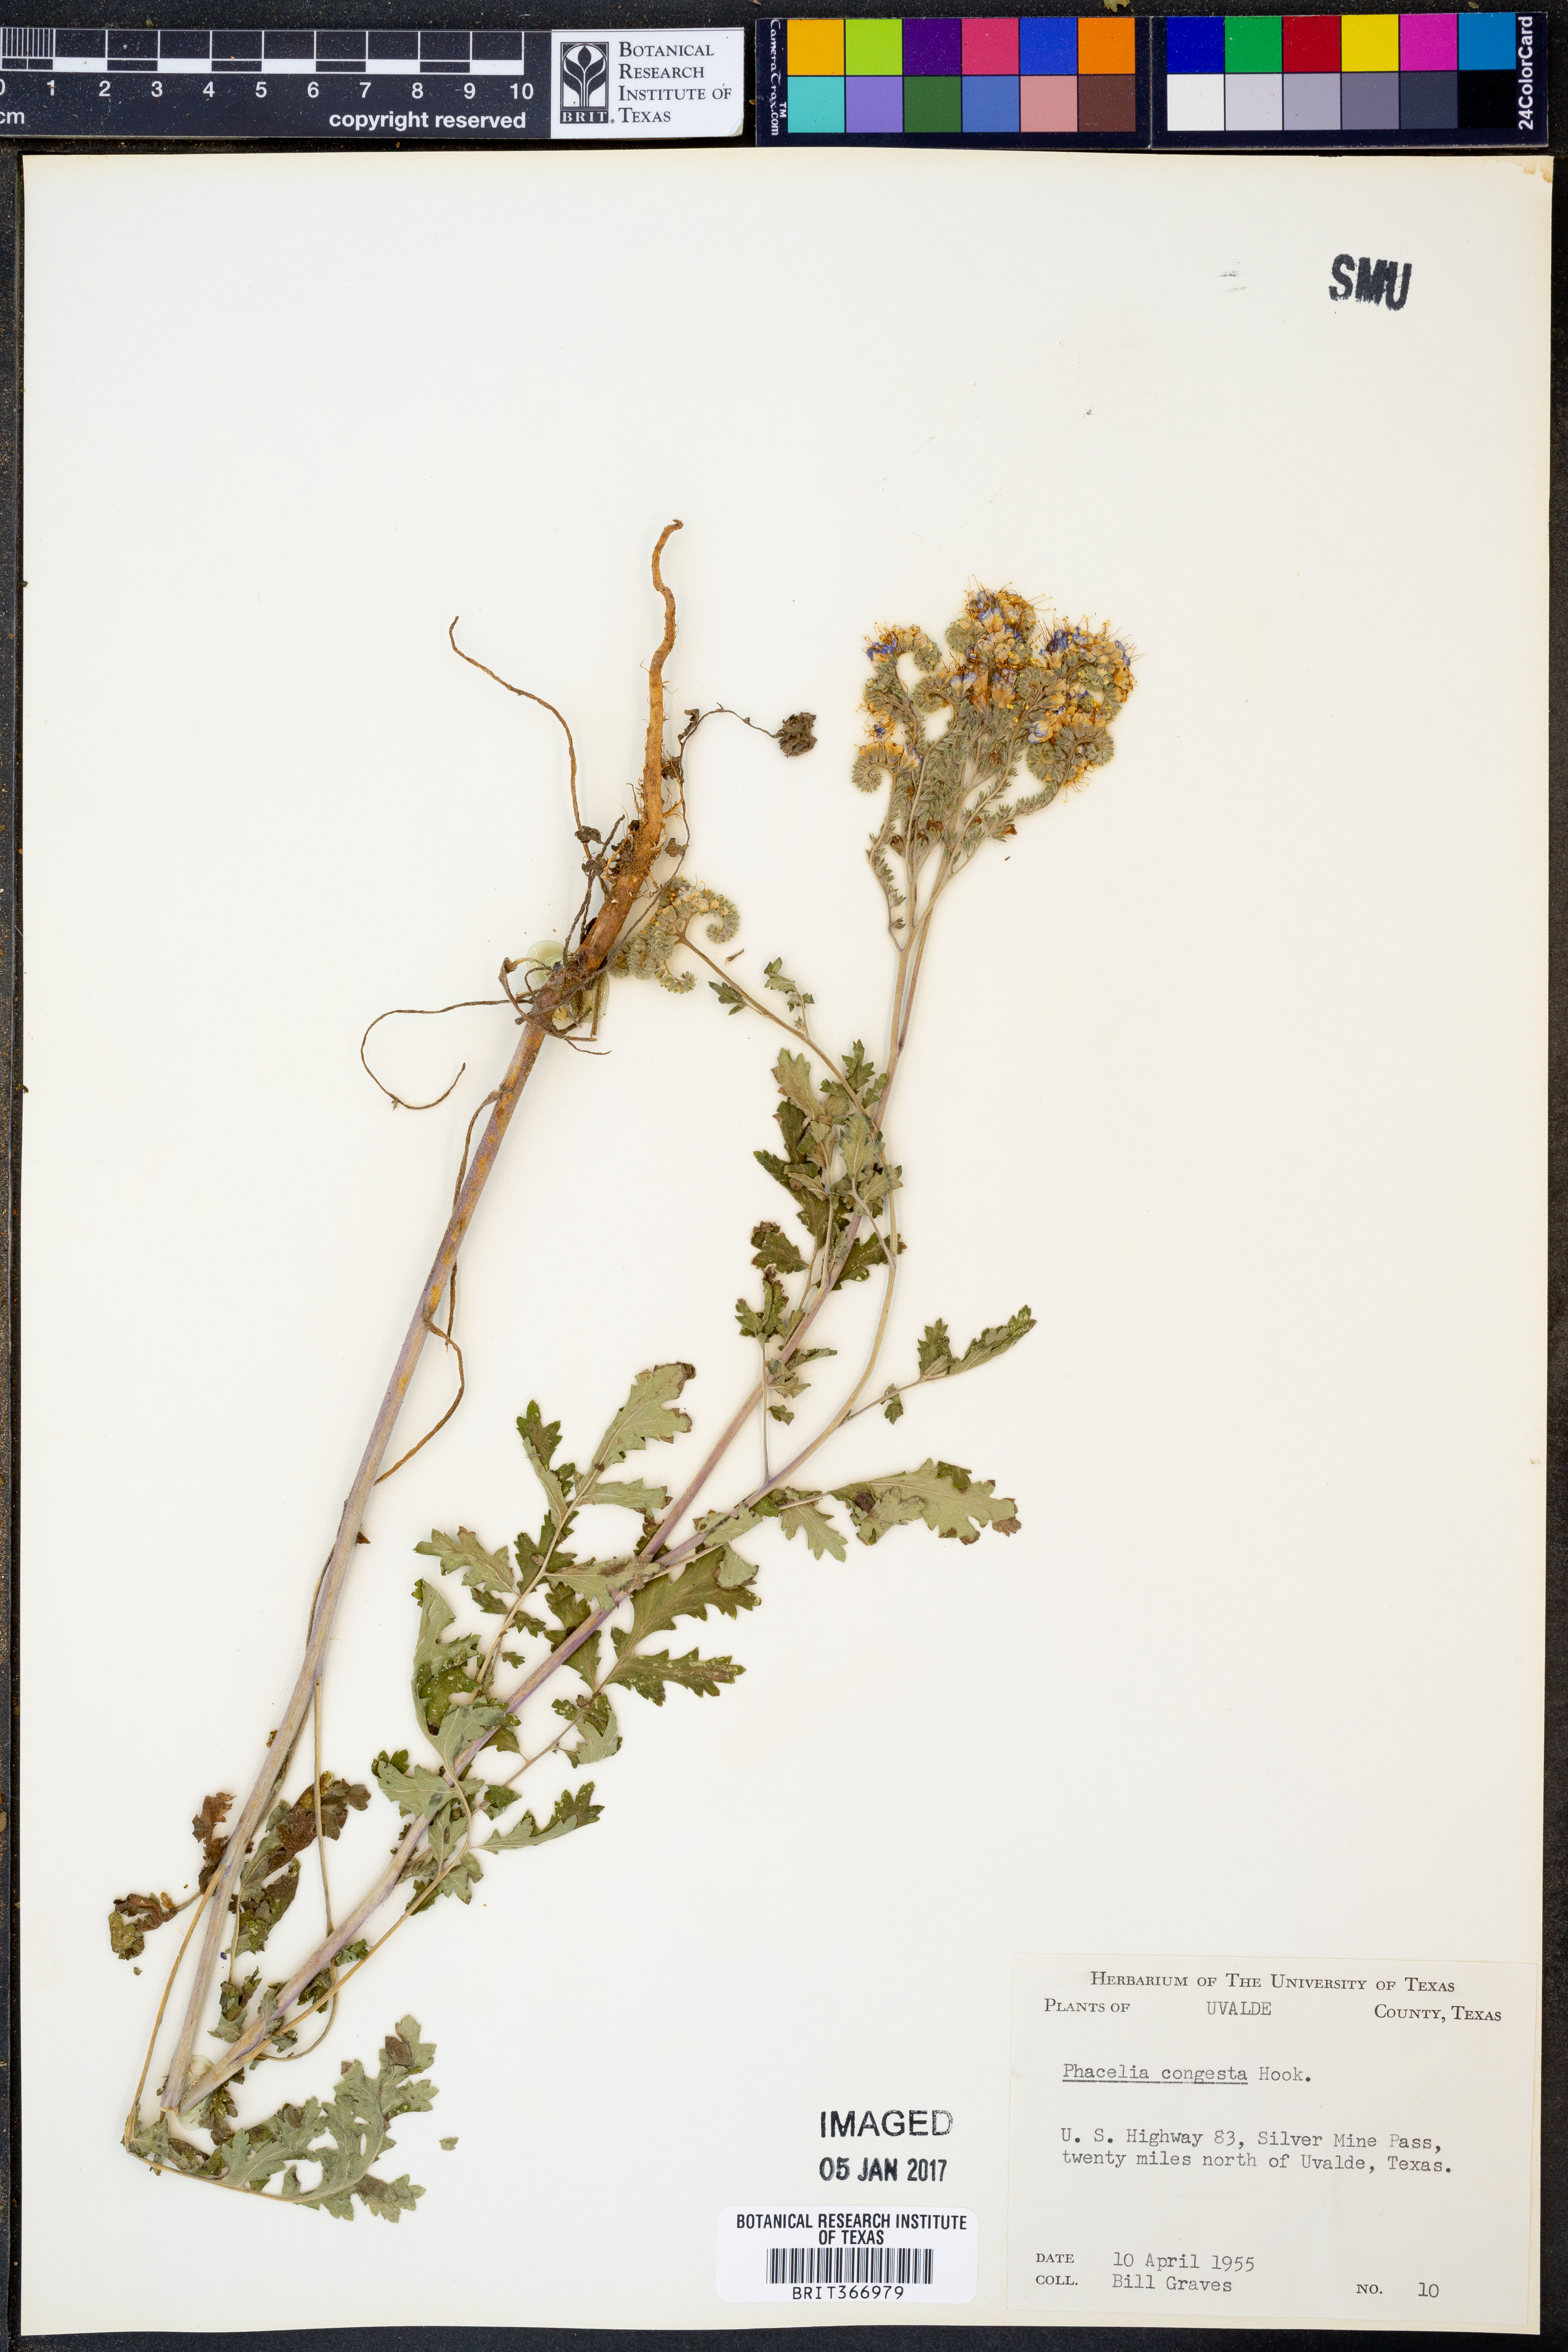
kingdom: Plantae
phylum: Tracheophyta
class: Magnoliopsida
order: Boraginales
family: Hydrophyllaceae
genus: Phacelia
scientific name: Phacelia congesta
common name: Blue curls
